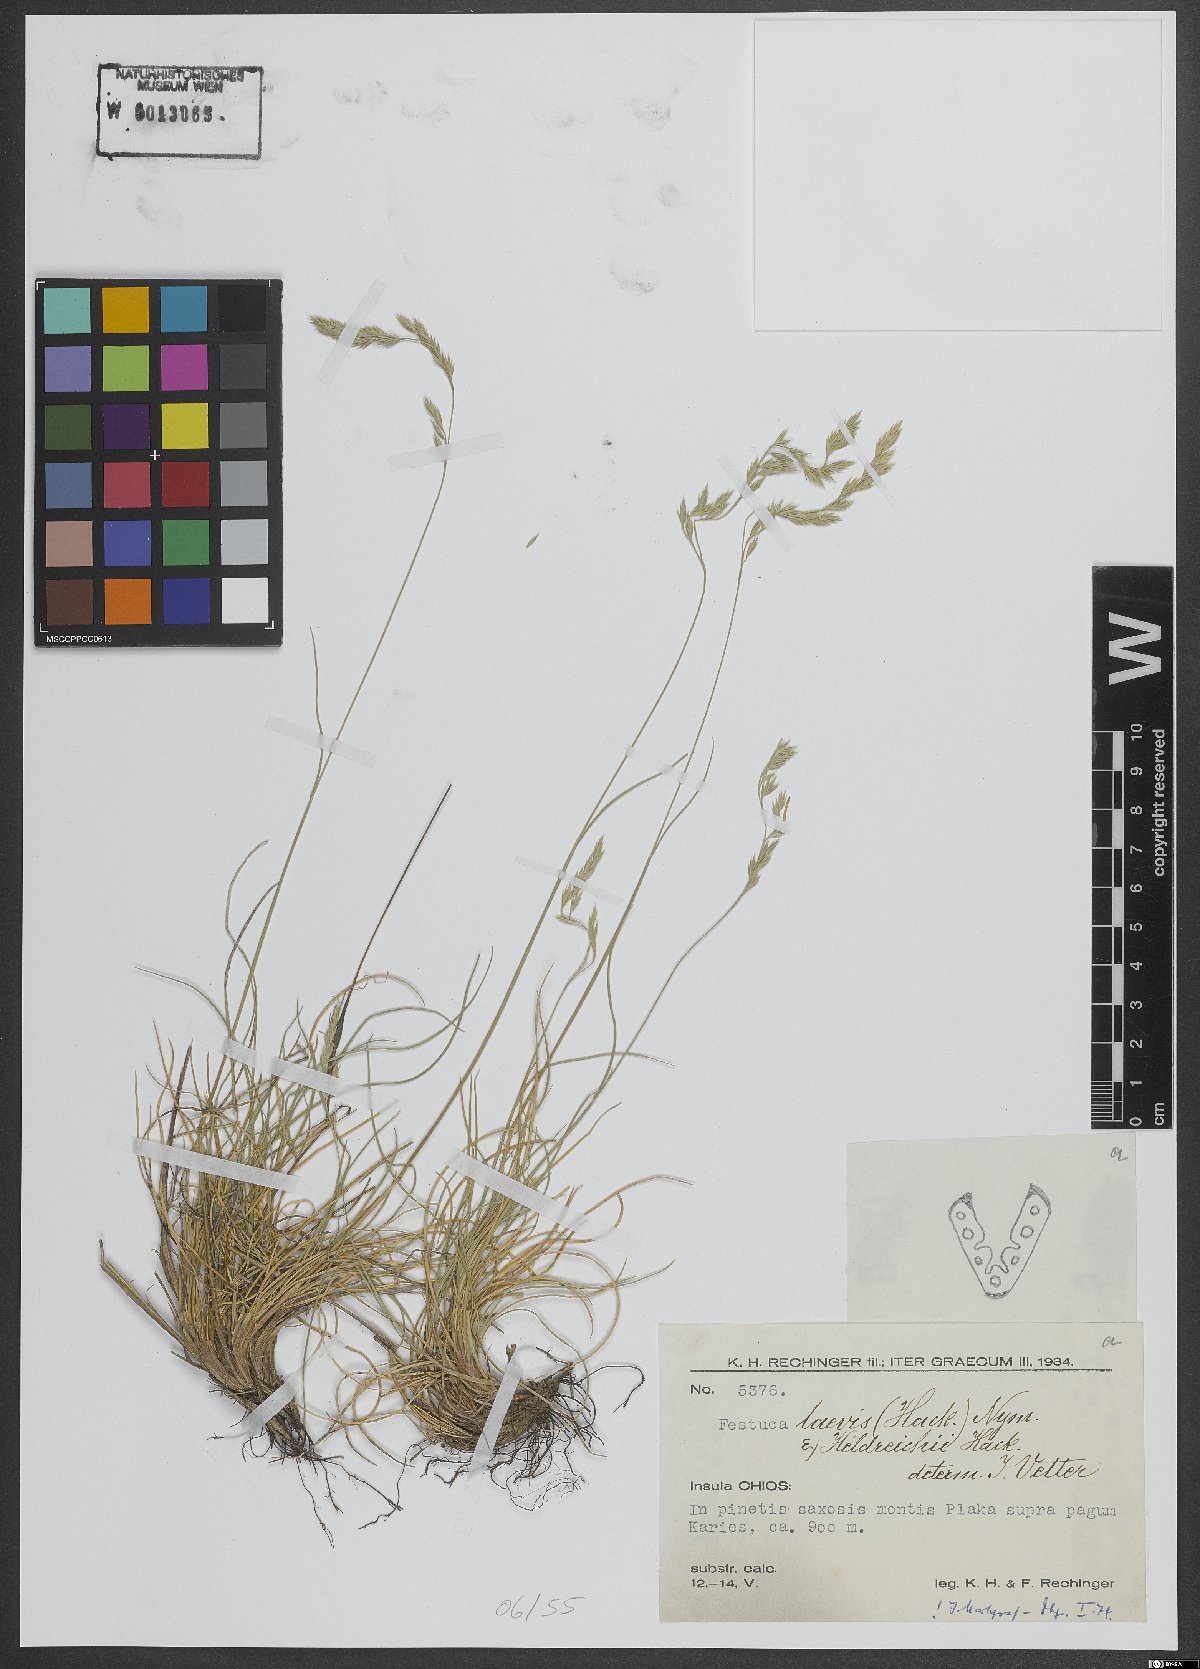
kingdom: Plantae
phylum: Tracheophyta
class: Liliopsida
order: Poales
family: Poaceae
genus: Festuca
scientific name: Festuca laevis
